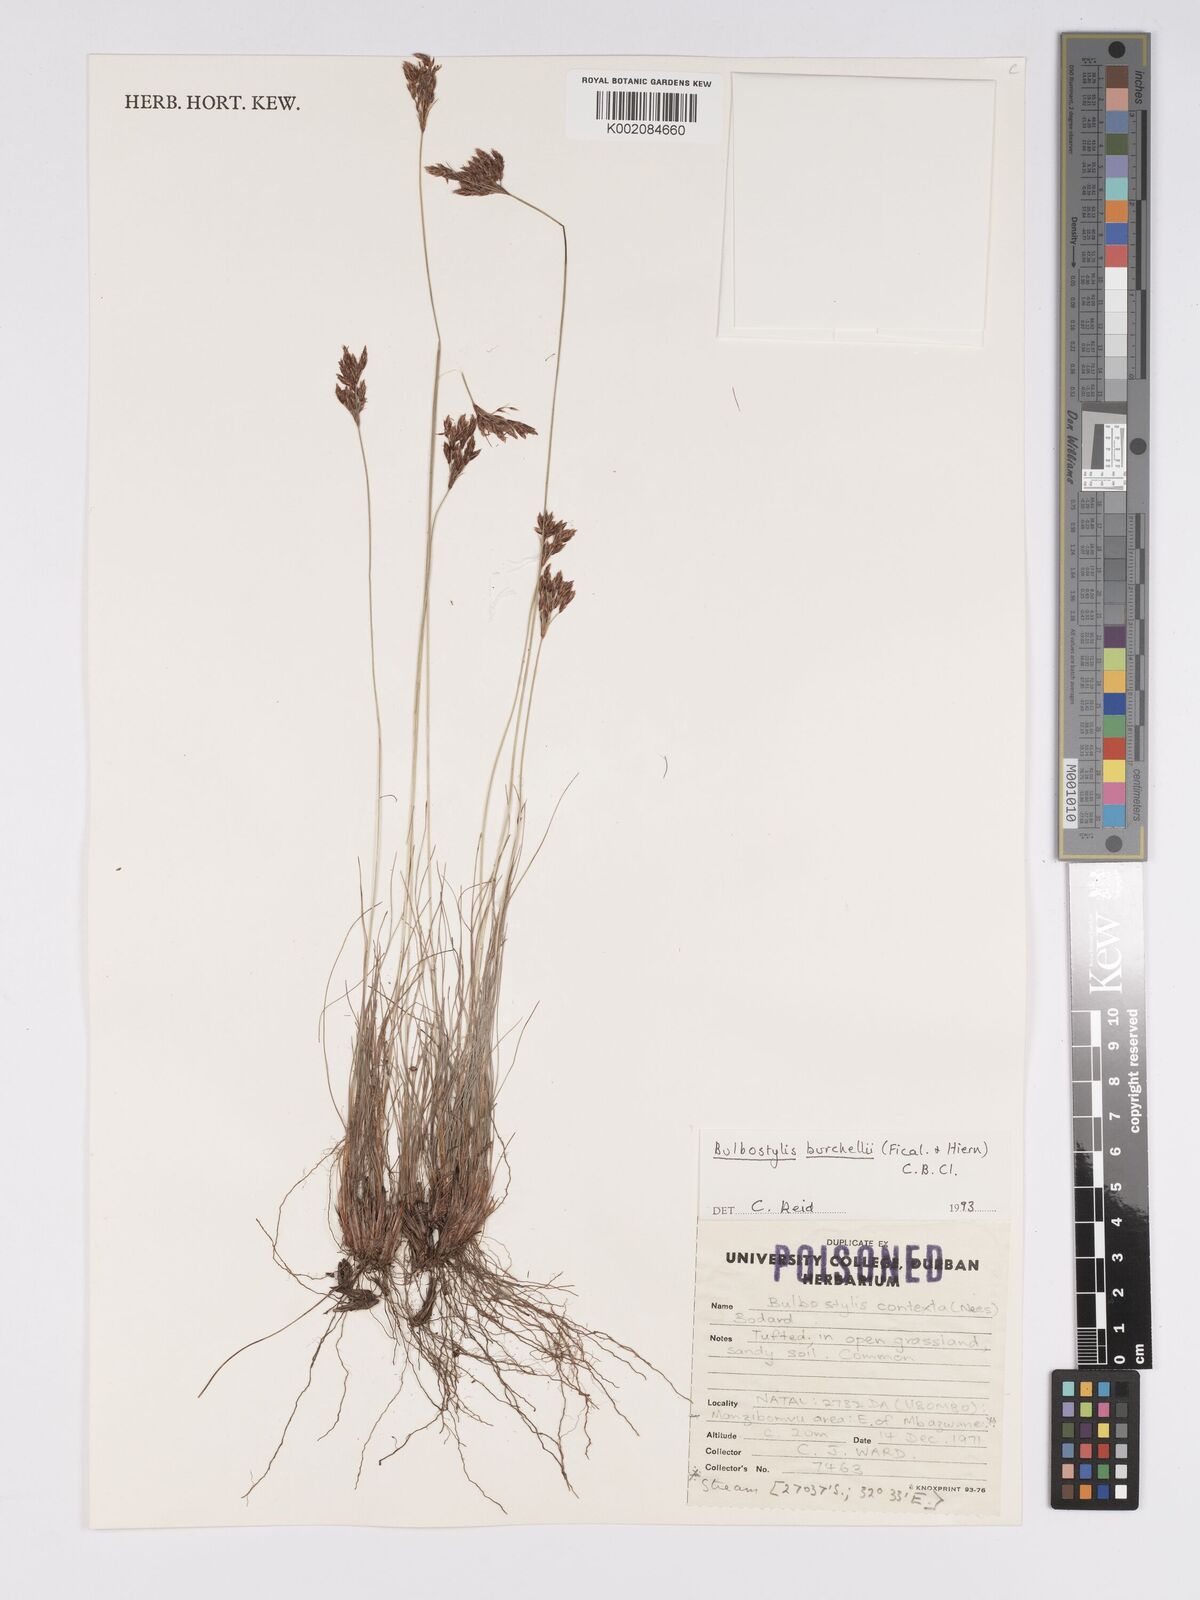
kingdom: Plantae
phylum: Tracheophyta
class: Liliopsida
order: Poales
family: Cyperaceae
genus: Bulbostylis
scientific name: Bulbostylis burchellii
